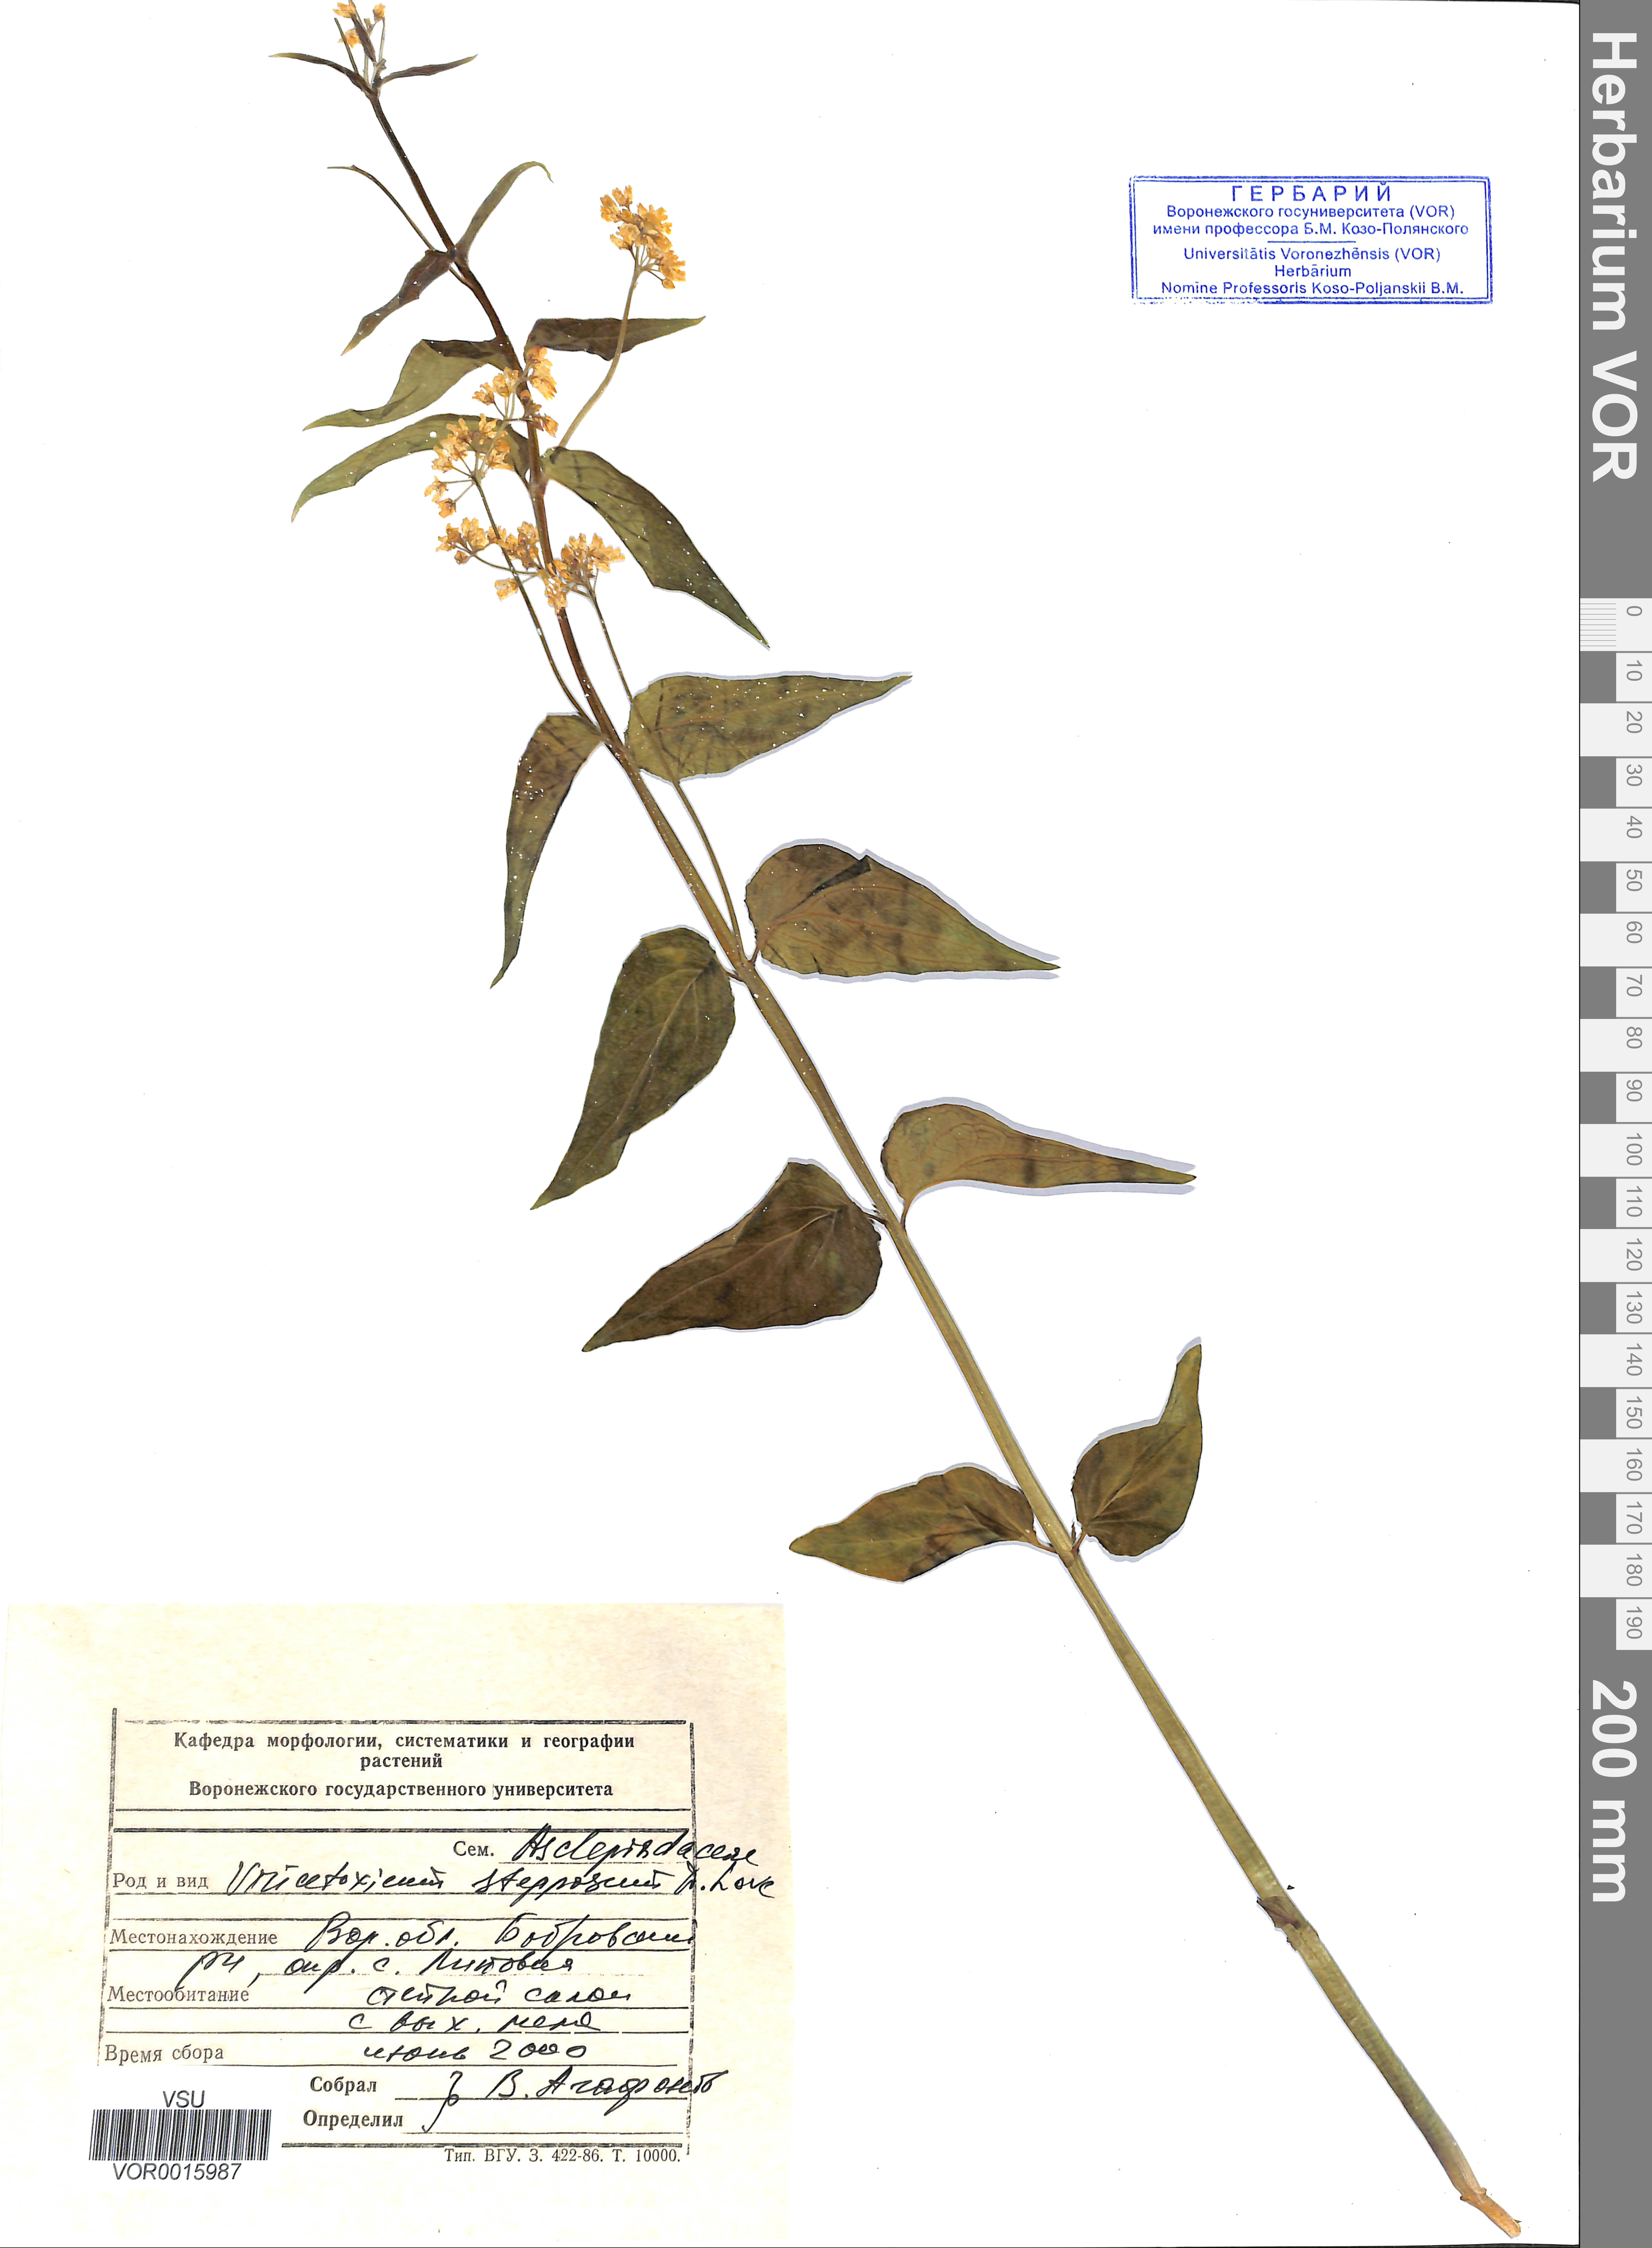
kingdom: Plantae
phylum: Tracheophyta
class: Magnoliopsida
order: Gentianales
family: Apocynaceae
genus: Vincetoxicum
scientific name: Vincetoxicum hirundinaria
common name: White swallowwort
